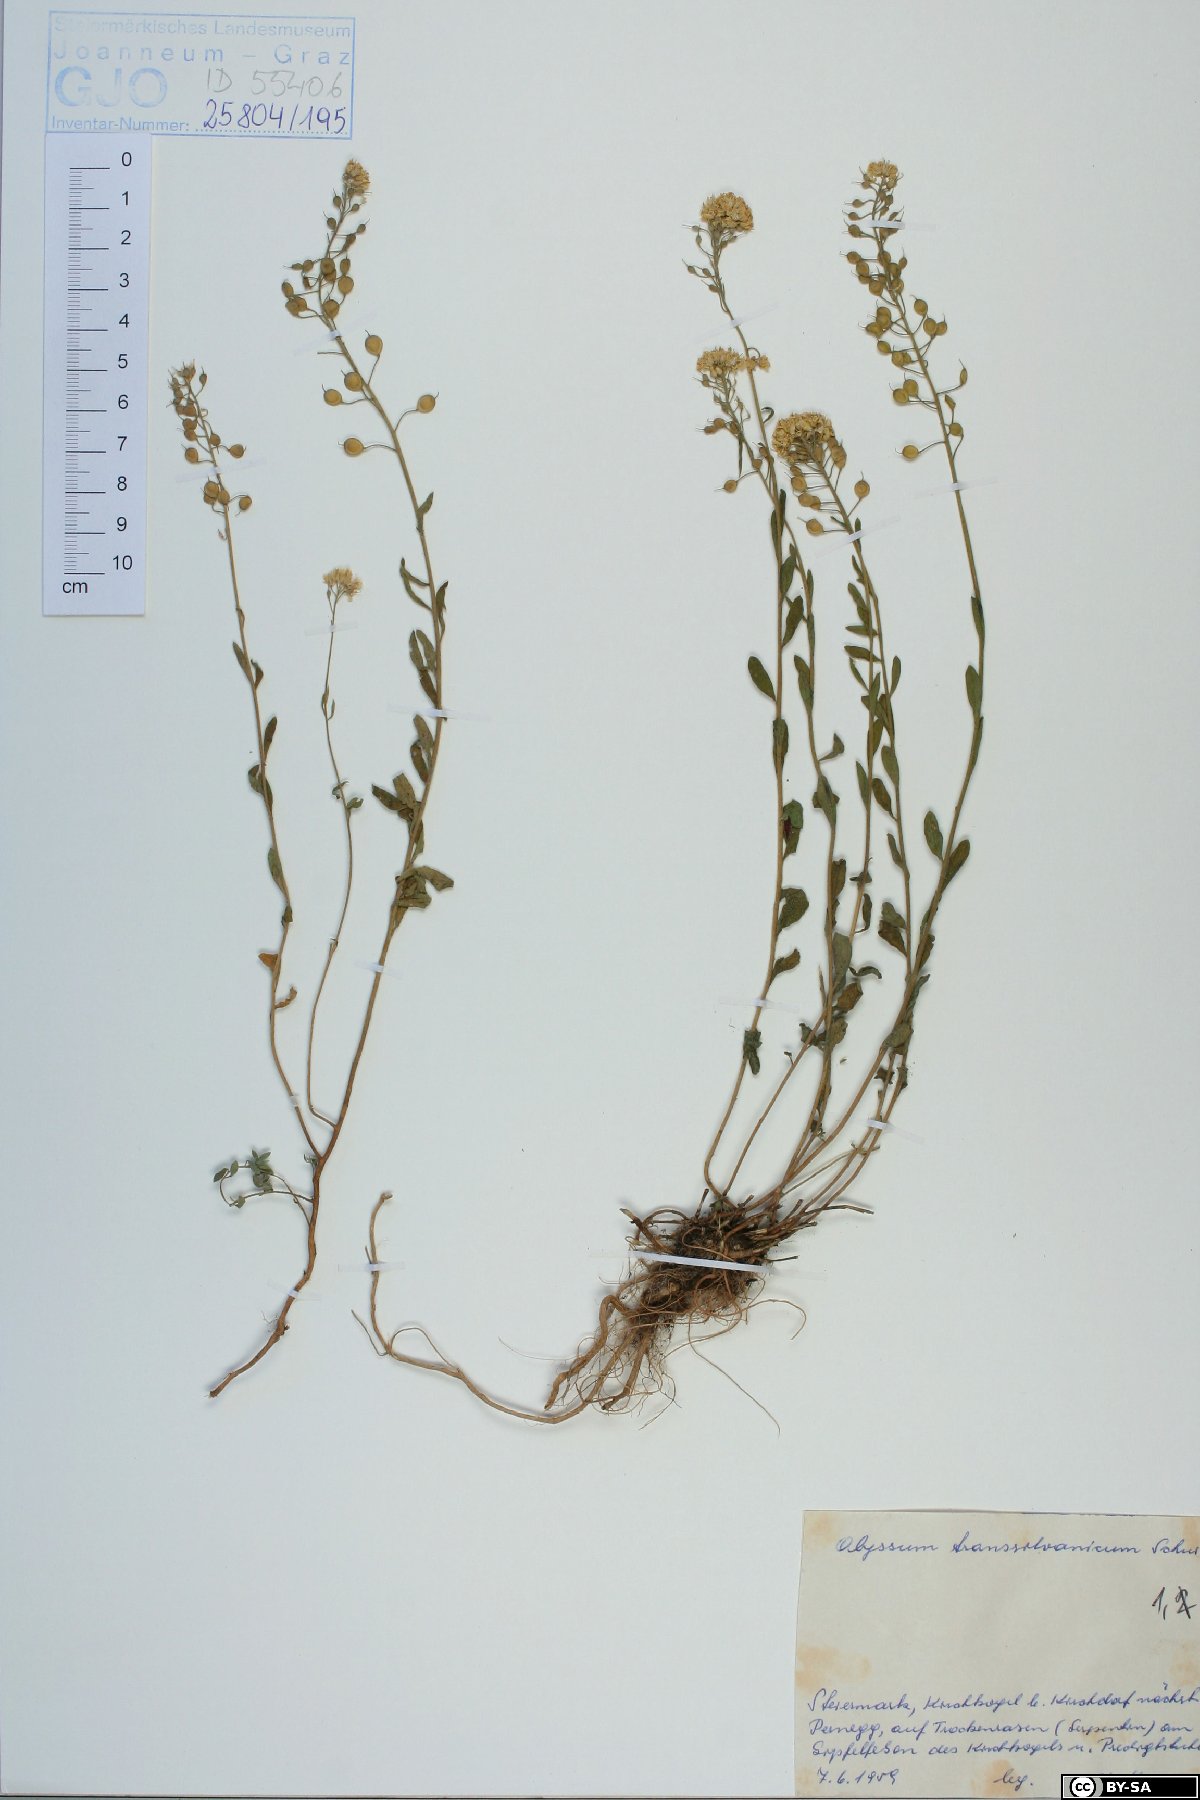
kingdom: Plantae
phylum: Tracheophyta
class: Magnoliopsida
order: Brassicales
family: Brassicaceae
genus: Alyssum
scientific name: Alyssum repens
